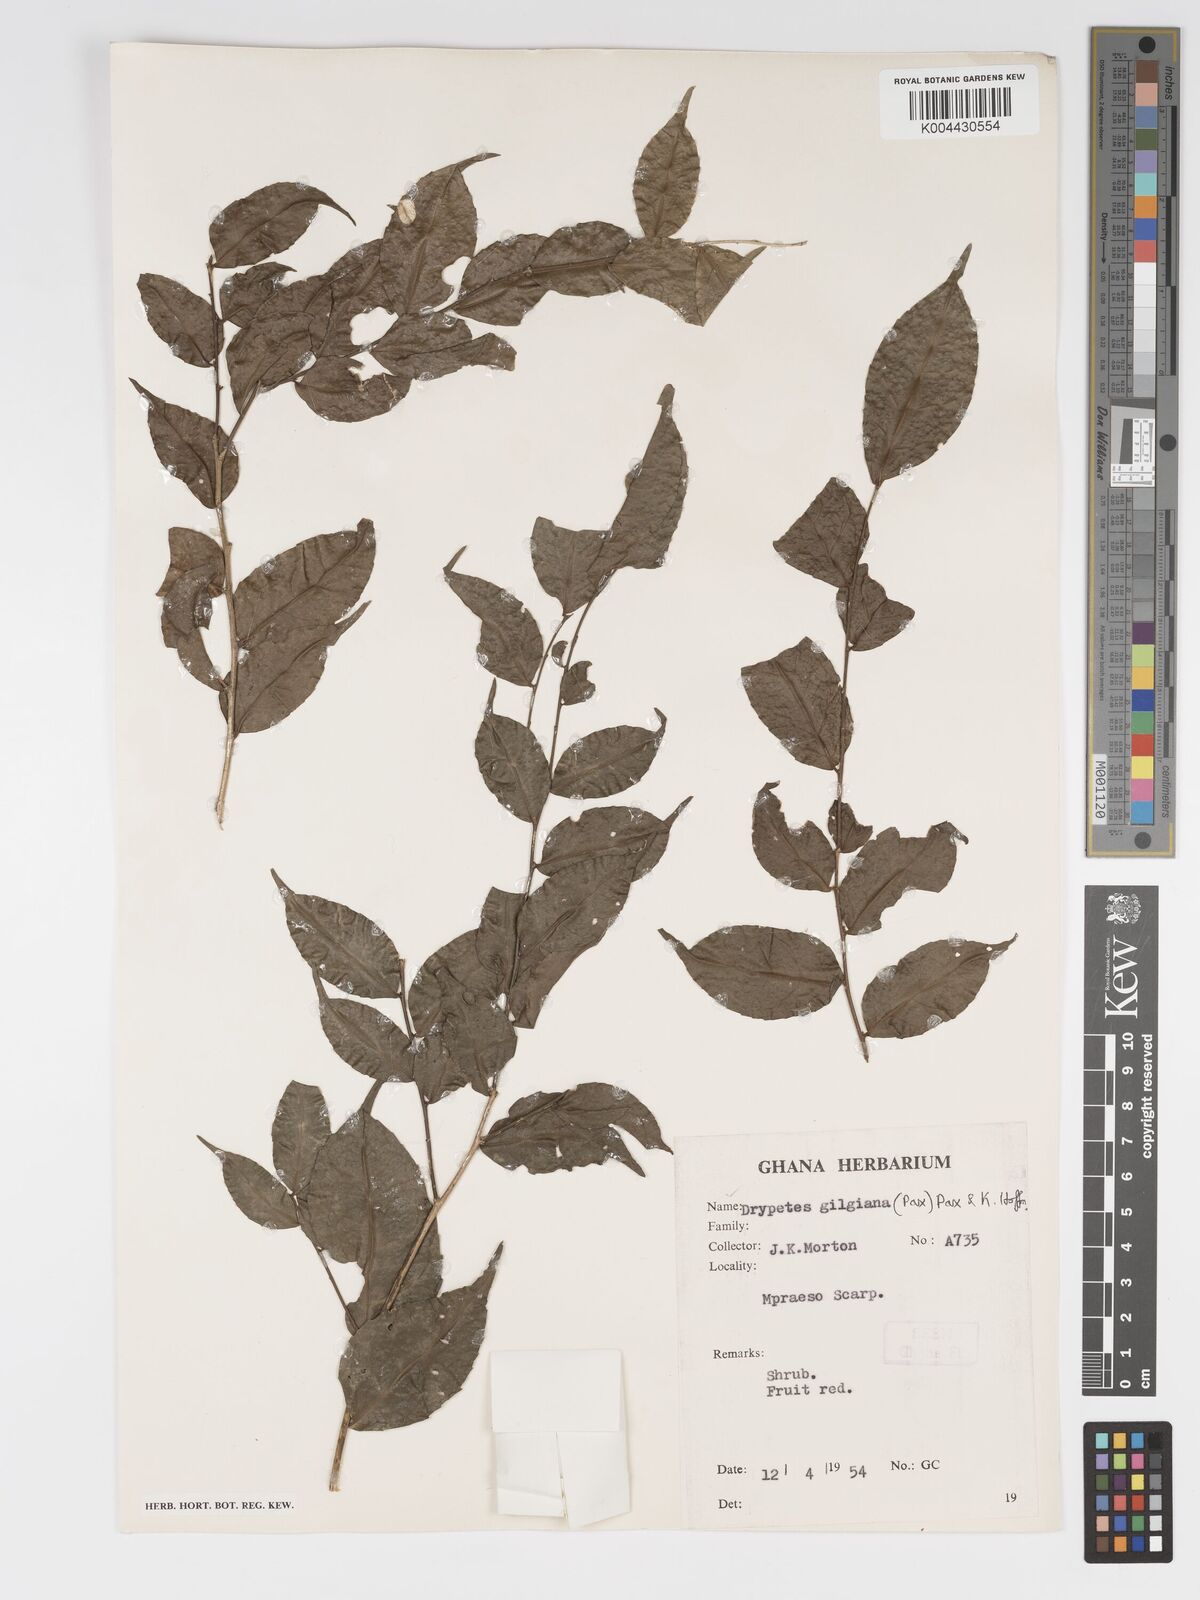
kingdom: Plantae
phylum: Tracheophyta
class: Magnoliopsida
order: Malpighiales
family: Putranjivaceae
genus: Drypetes
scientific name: Drypetes gilgiana
